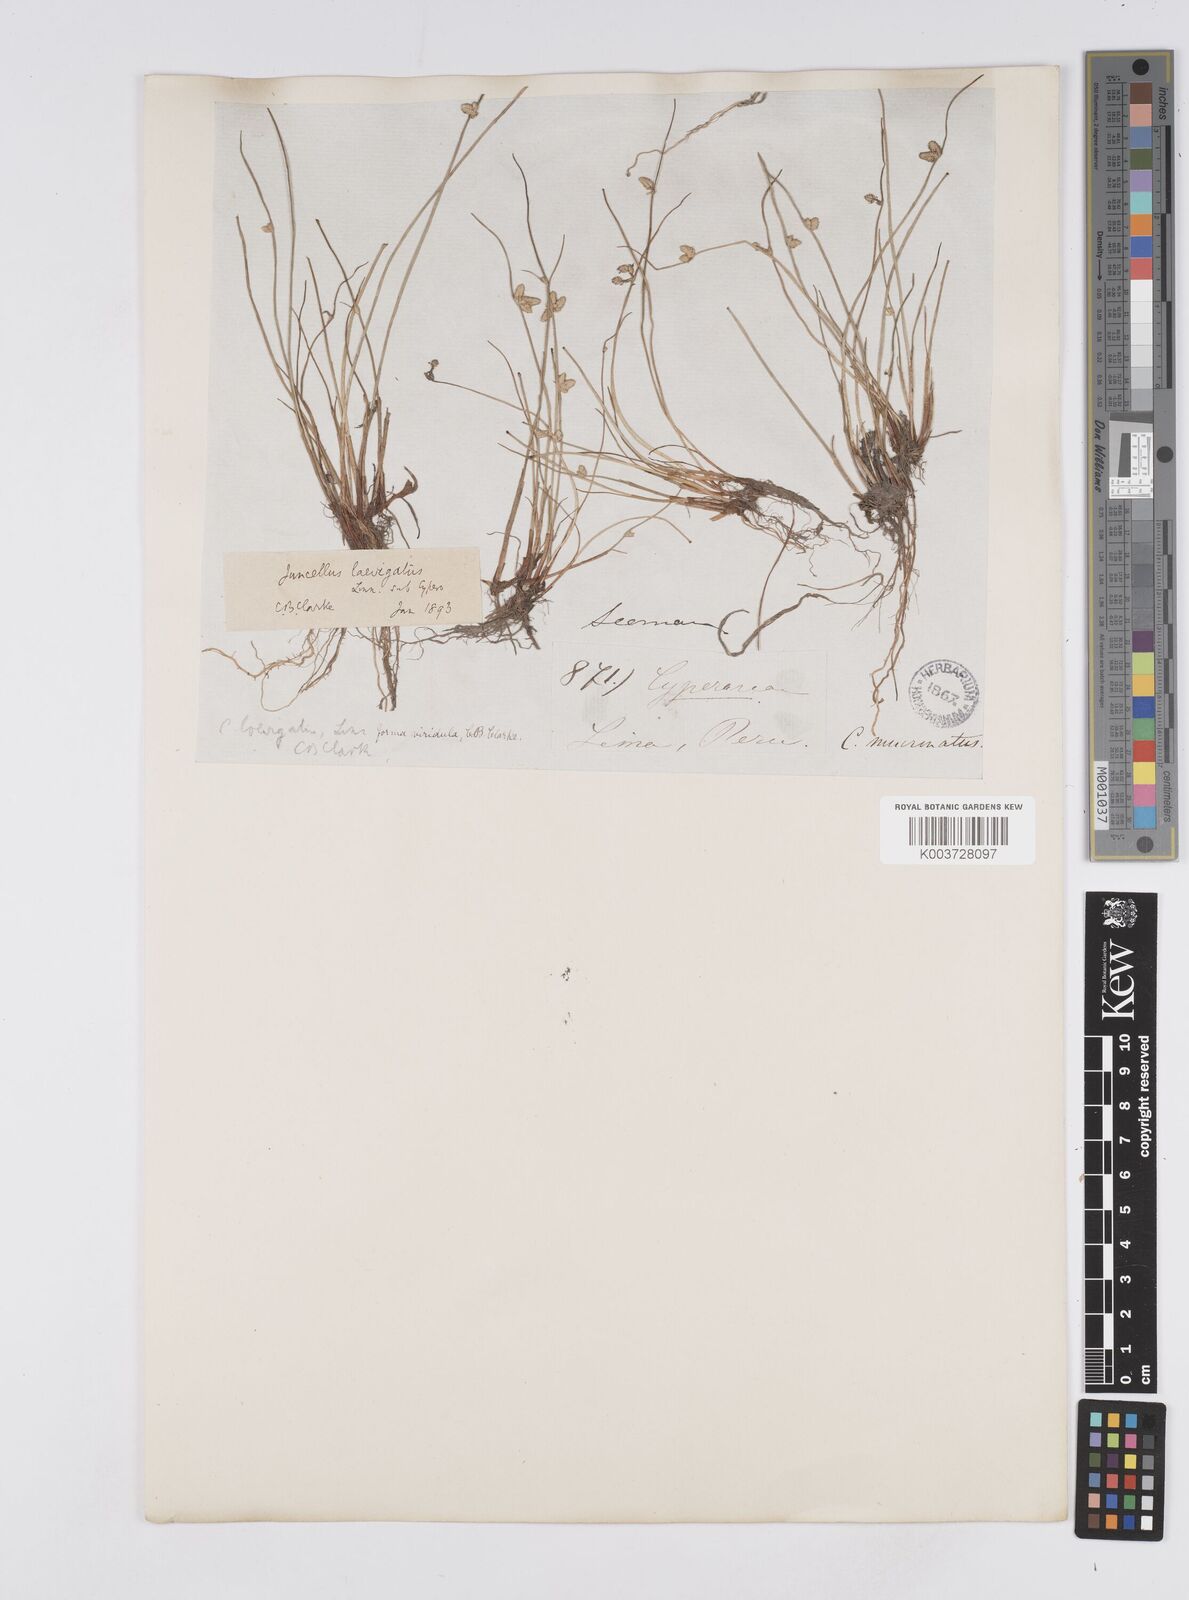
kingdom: Plantae
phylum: Tracheophyta
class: Liliopsida
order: Poales
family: Cyperaceae
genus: Cyperus
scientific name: Cyperus laevigatus
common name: Smooth flat sedge
